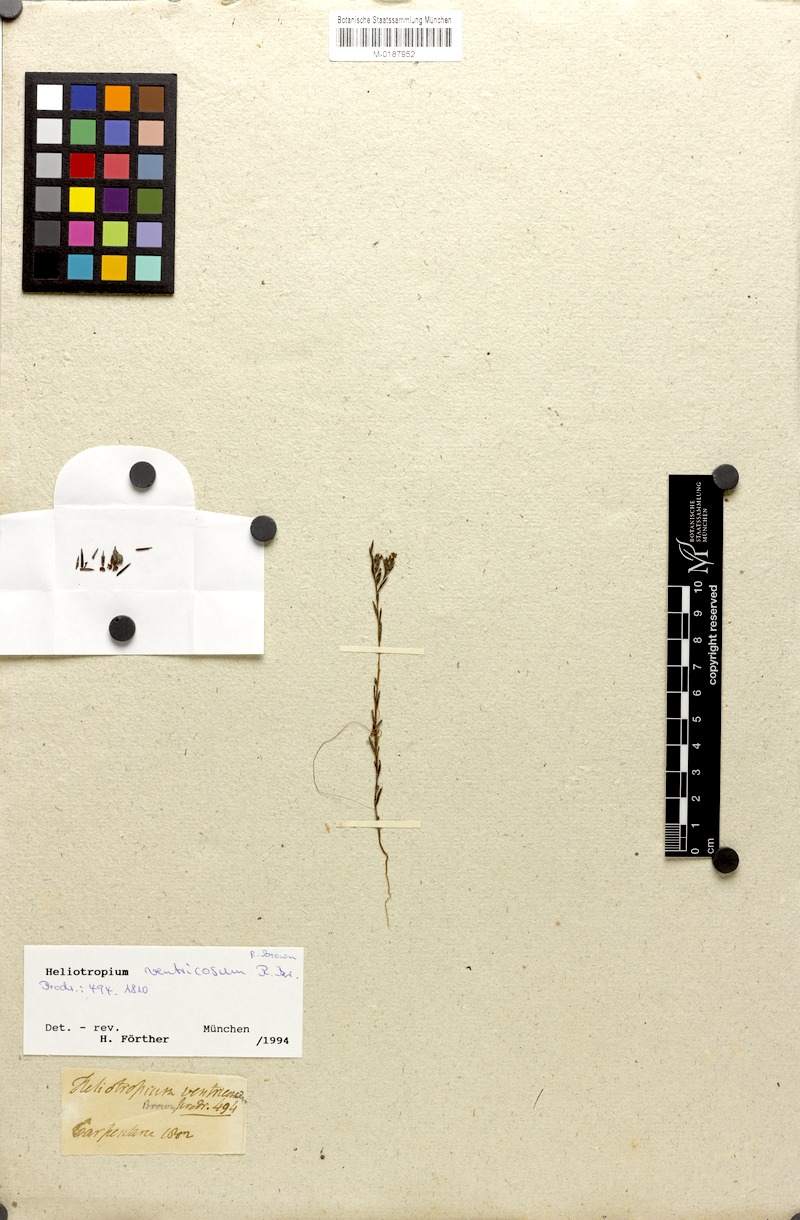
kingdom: Plantae
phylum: Tracheophyta
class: Magnoliopsida
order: Boraginales
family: Heliotropiaceae
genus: Euploca
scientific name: Euploca ventricosa
